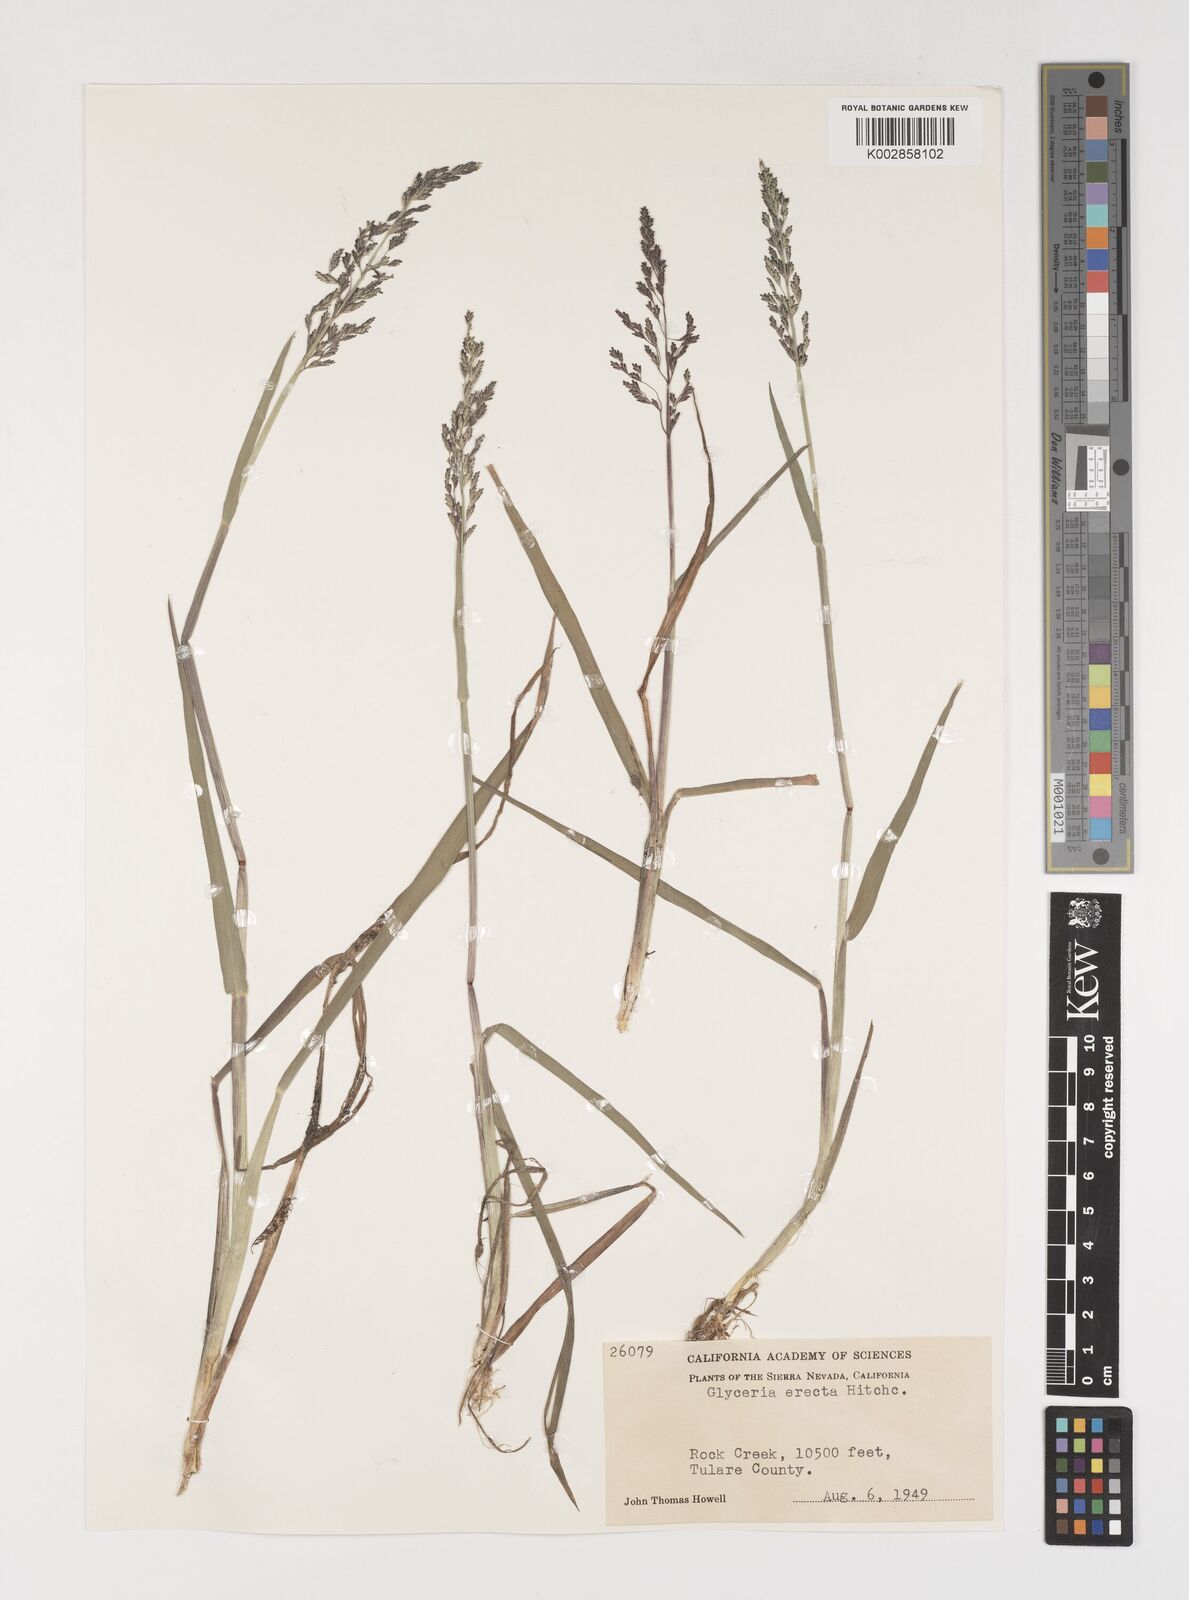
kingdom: Plantae
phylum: Tracheophyta
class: Liliopsida
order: Poales
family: Poaceae
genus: Torreyochloa
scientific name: Torreyochloa erecta
